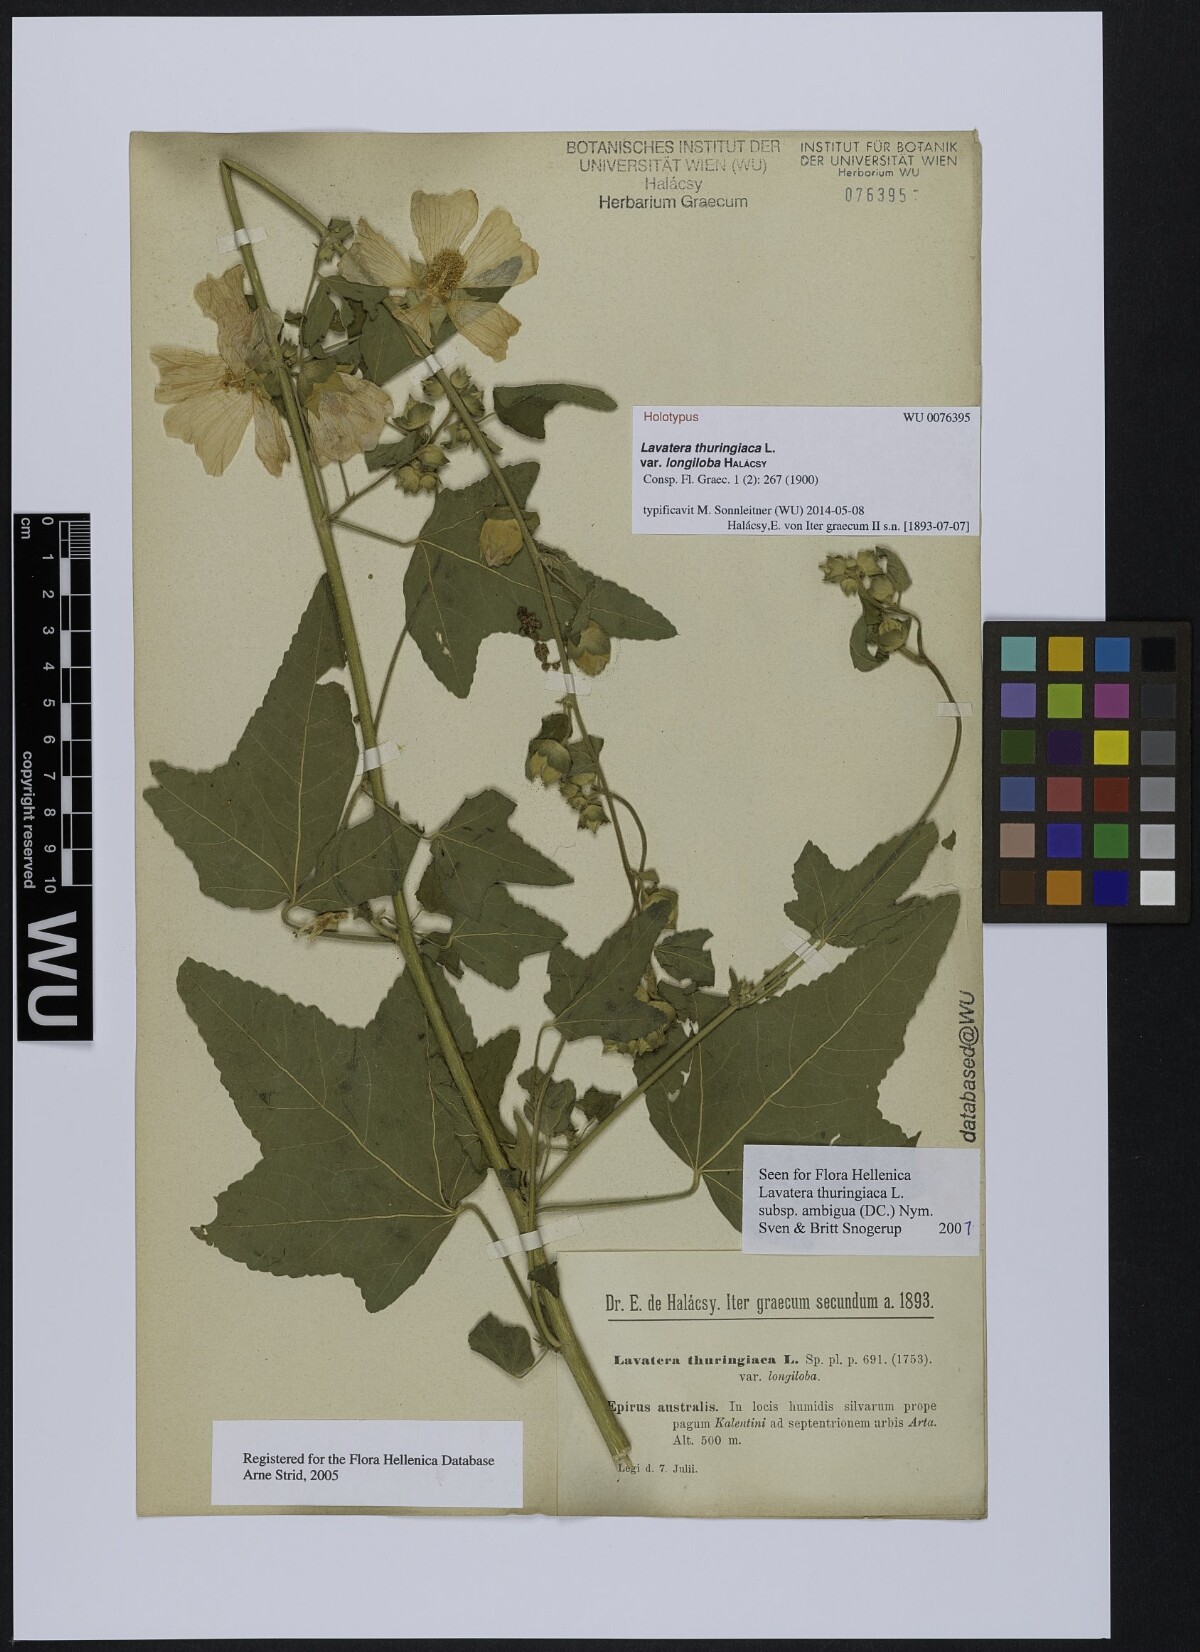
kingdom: Plantae
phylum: Tracheophyta
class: Magnoliopsida
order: Malvales
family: Malvaceae
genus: Malva
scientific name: Malva
